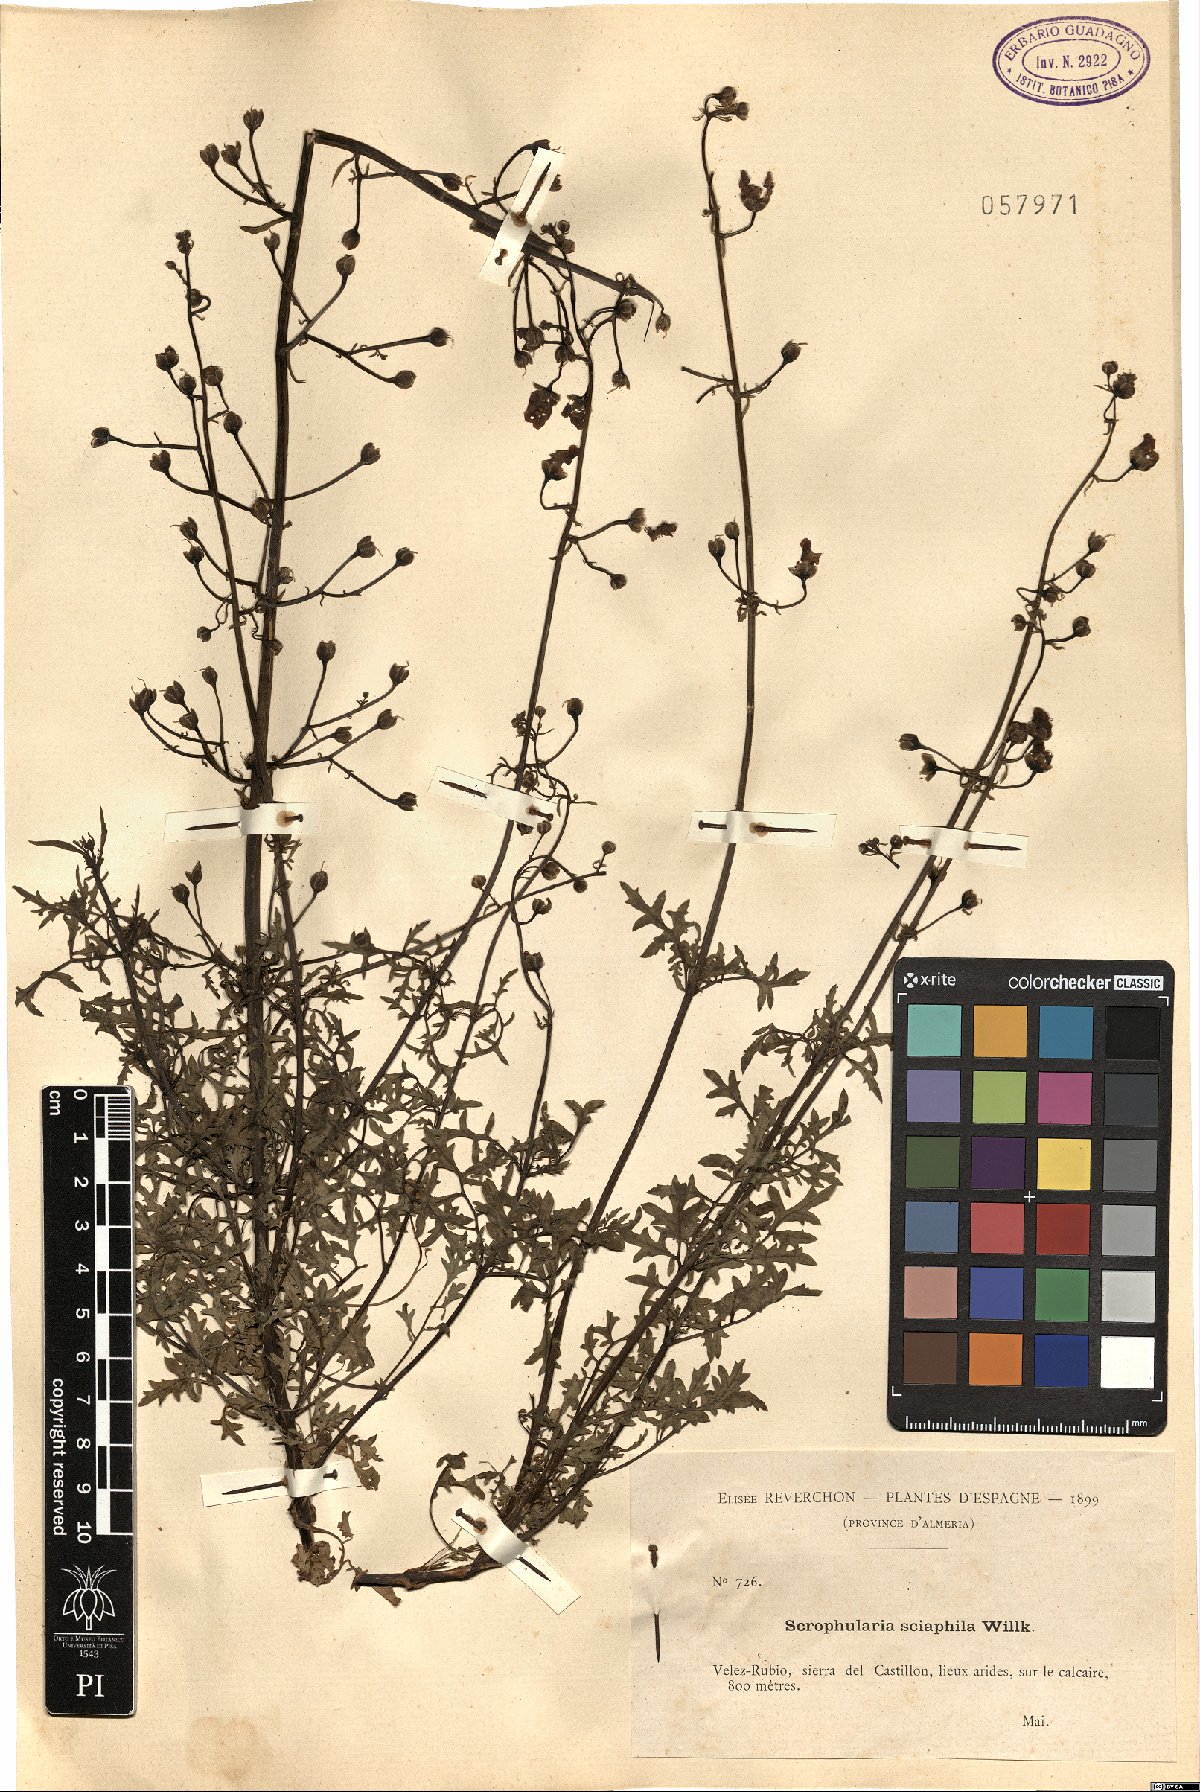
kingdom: Plantae
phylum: Tracheophyta
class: Magnoliopsida
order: Lamiales
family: Scrophulariaceae
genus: Scrophularia
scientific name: Scrophularia tanacetifolia
